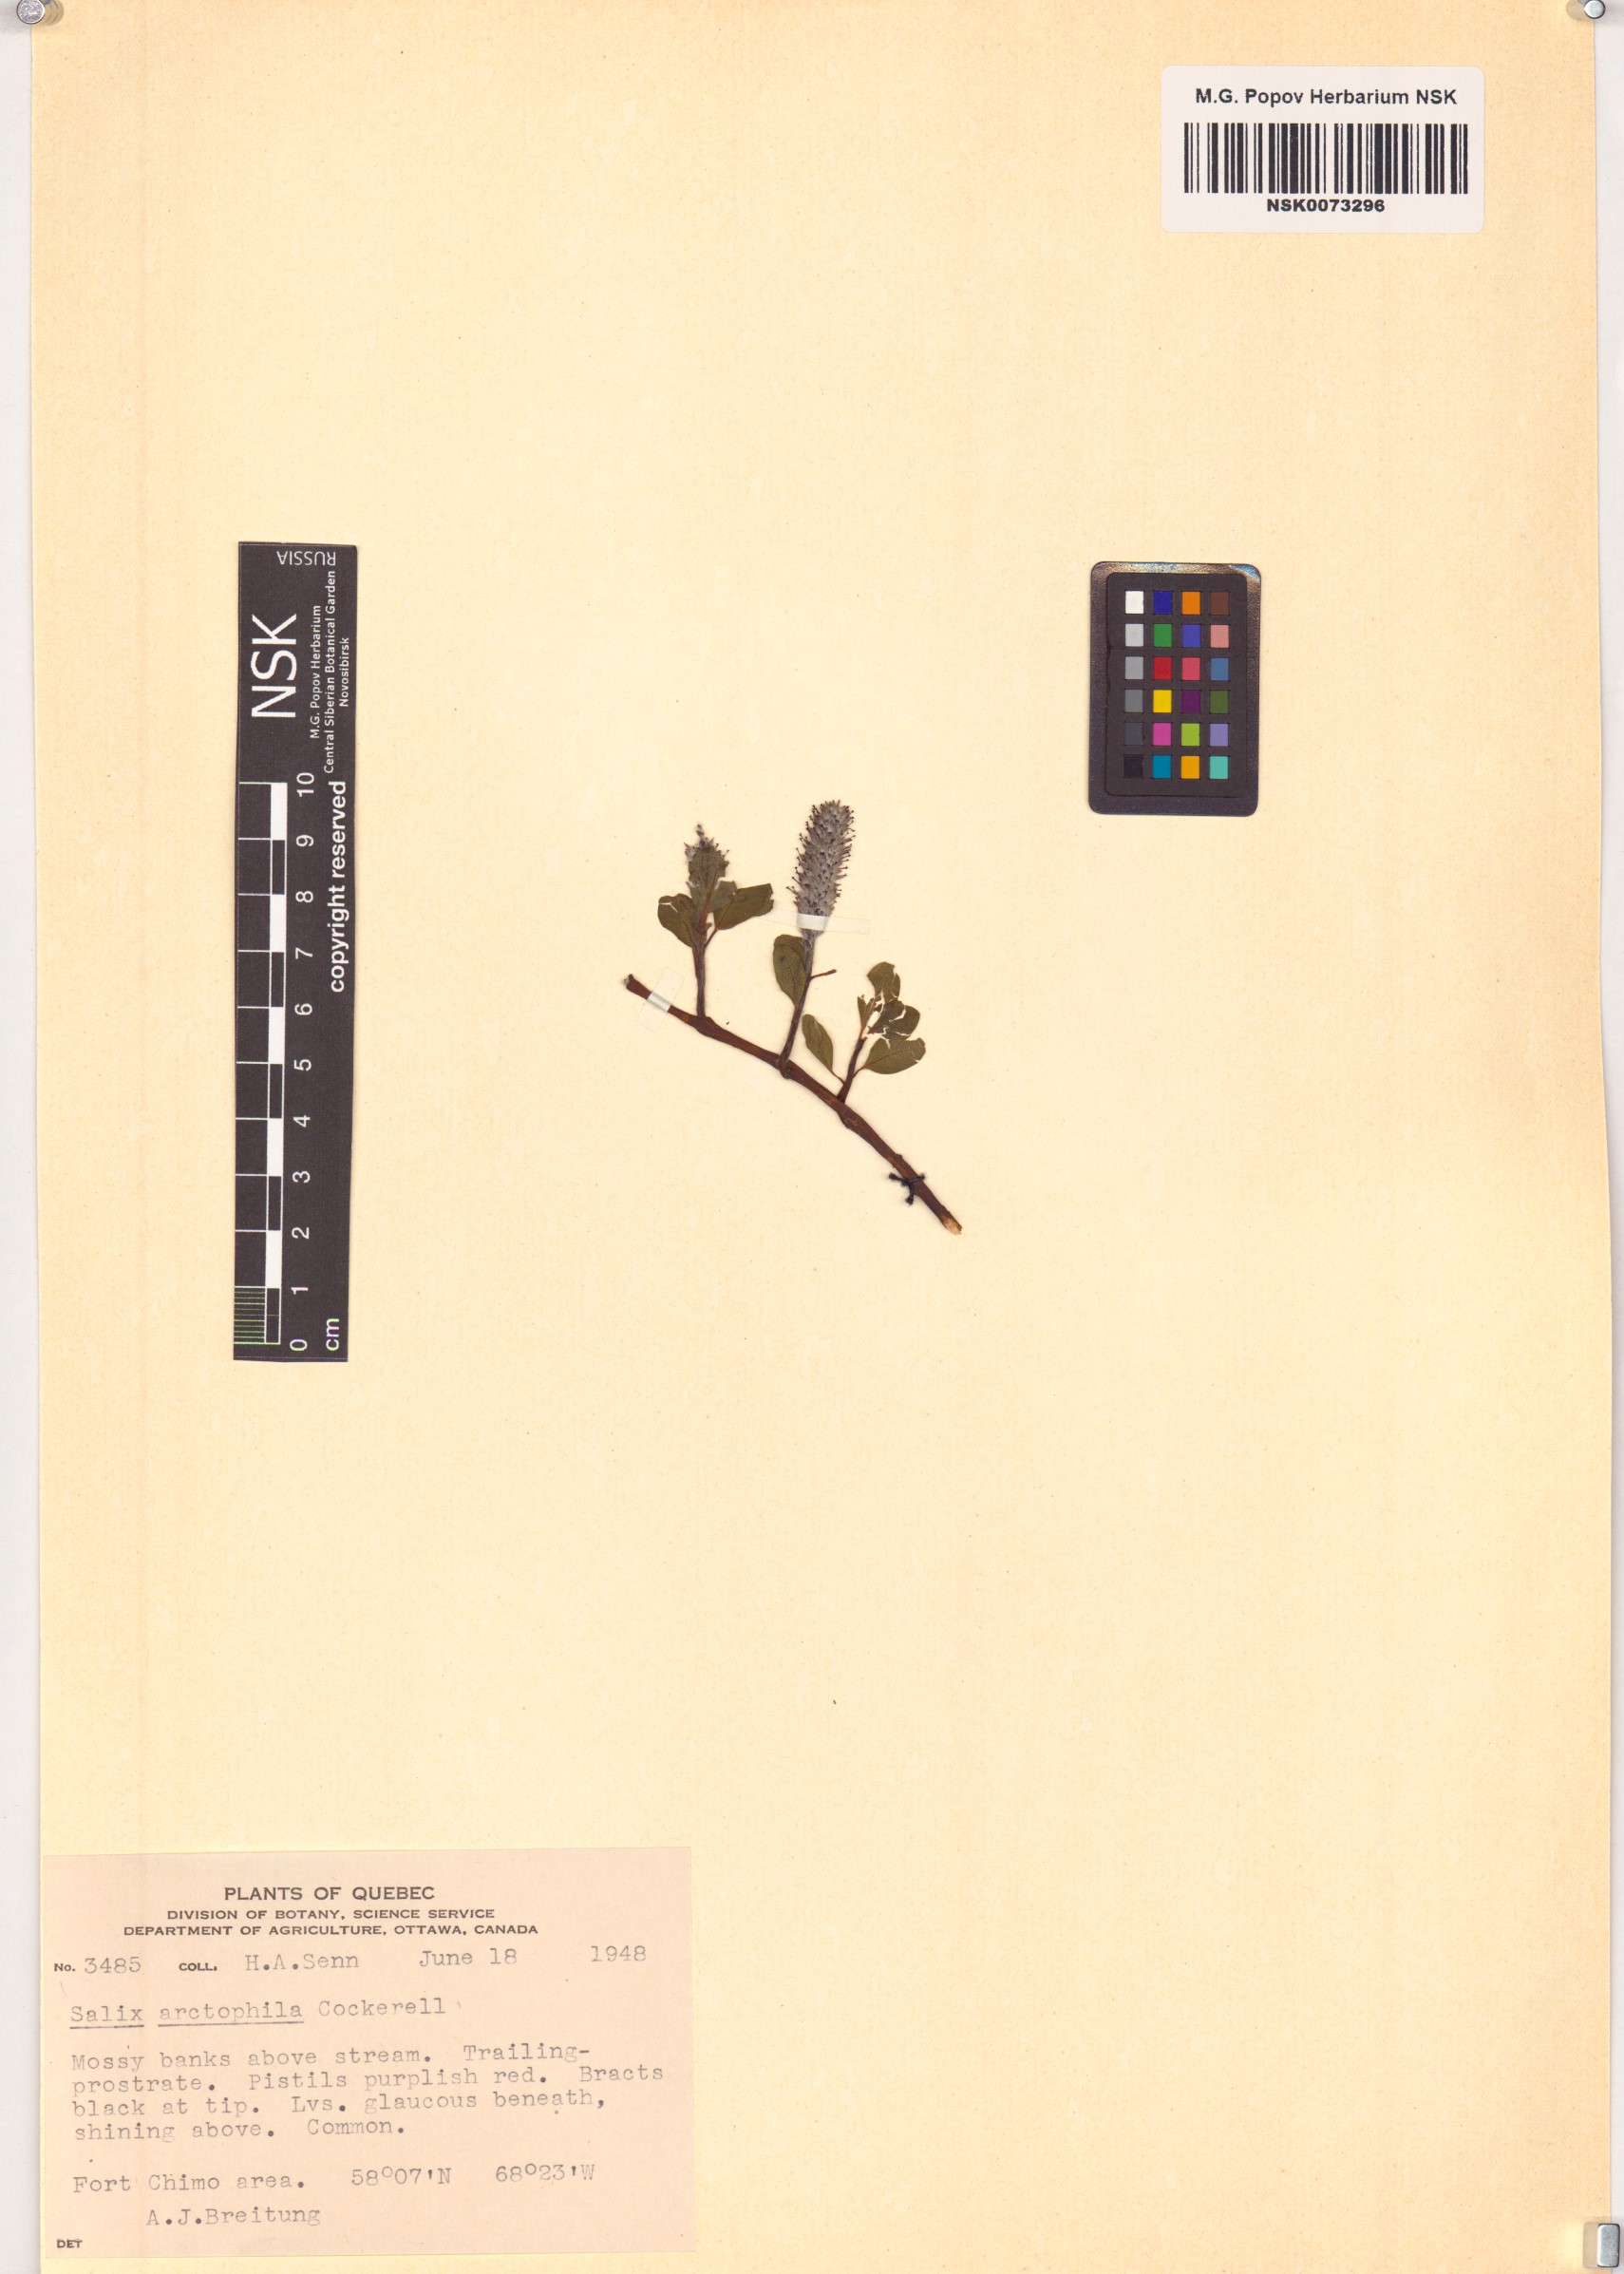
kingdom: Plantae
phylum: Tracheophyta
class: Magnoliopsida
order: Malpighiales
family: Salicaceae
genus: Salix
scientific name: Salix arctophila
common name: Greenland willow
